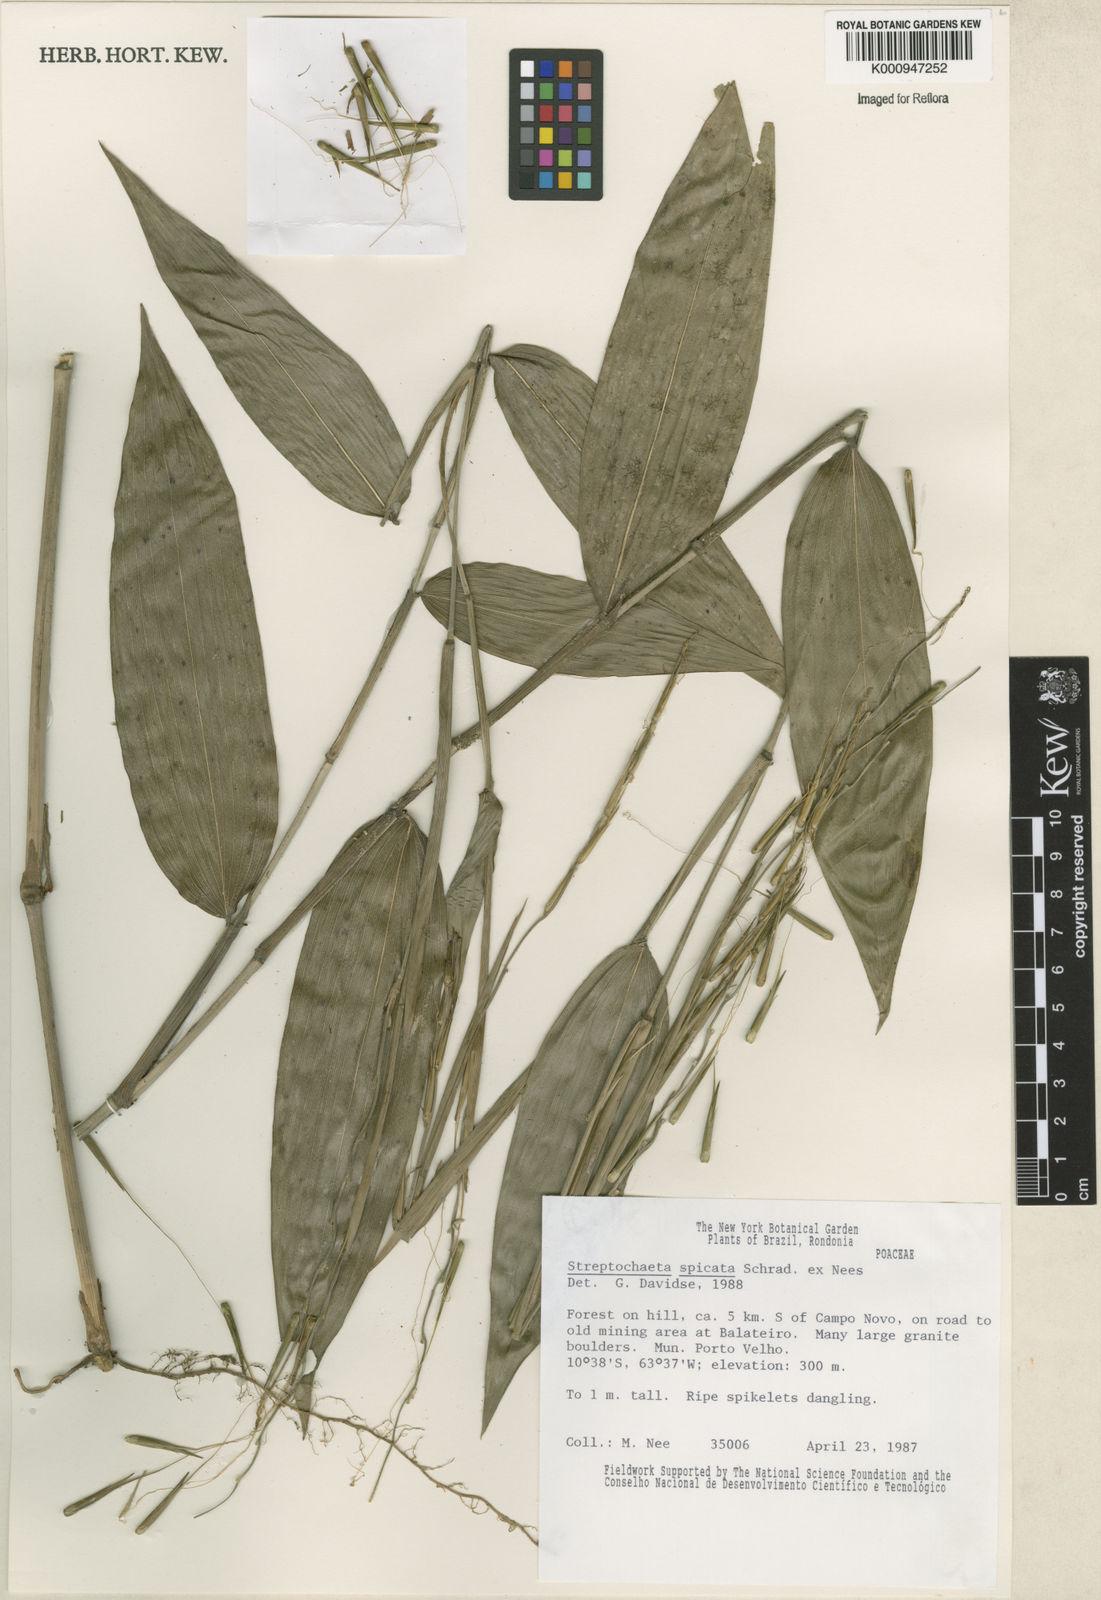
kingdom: Plantae
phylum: Tracheophyta
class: Liliopsida
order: Poales
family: Poaceae
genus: Streptochaeta
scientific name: Streptochaeta spicata
